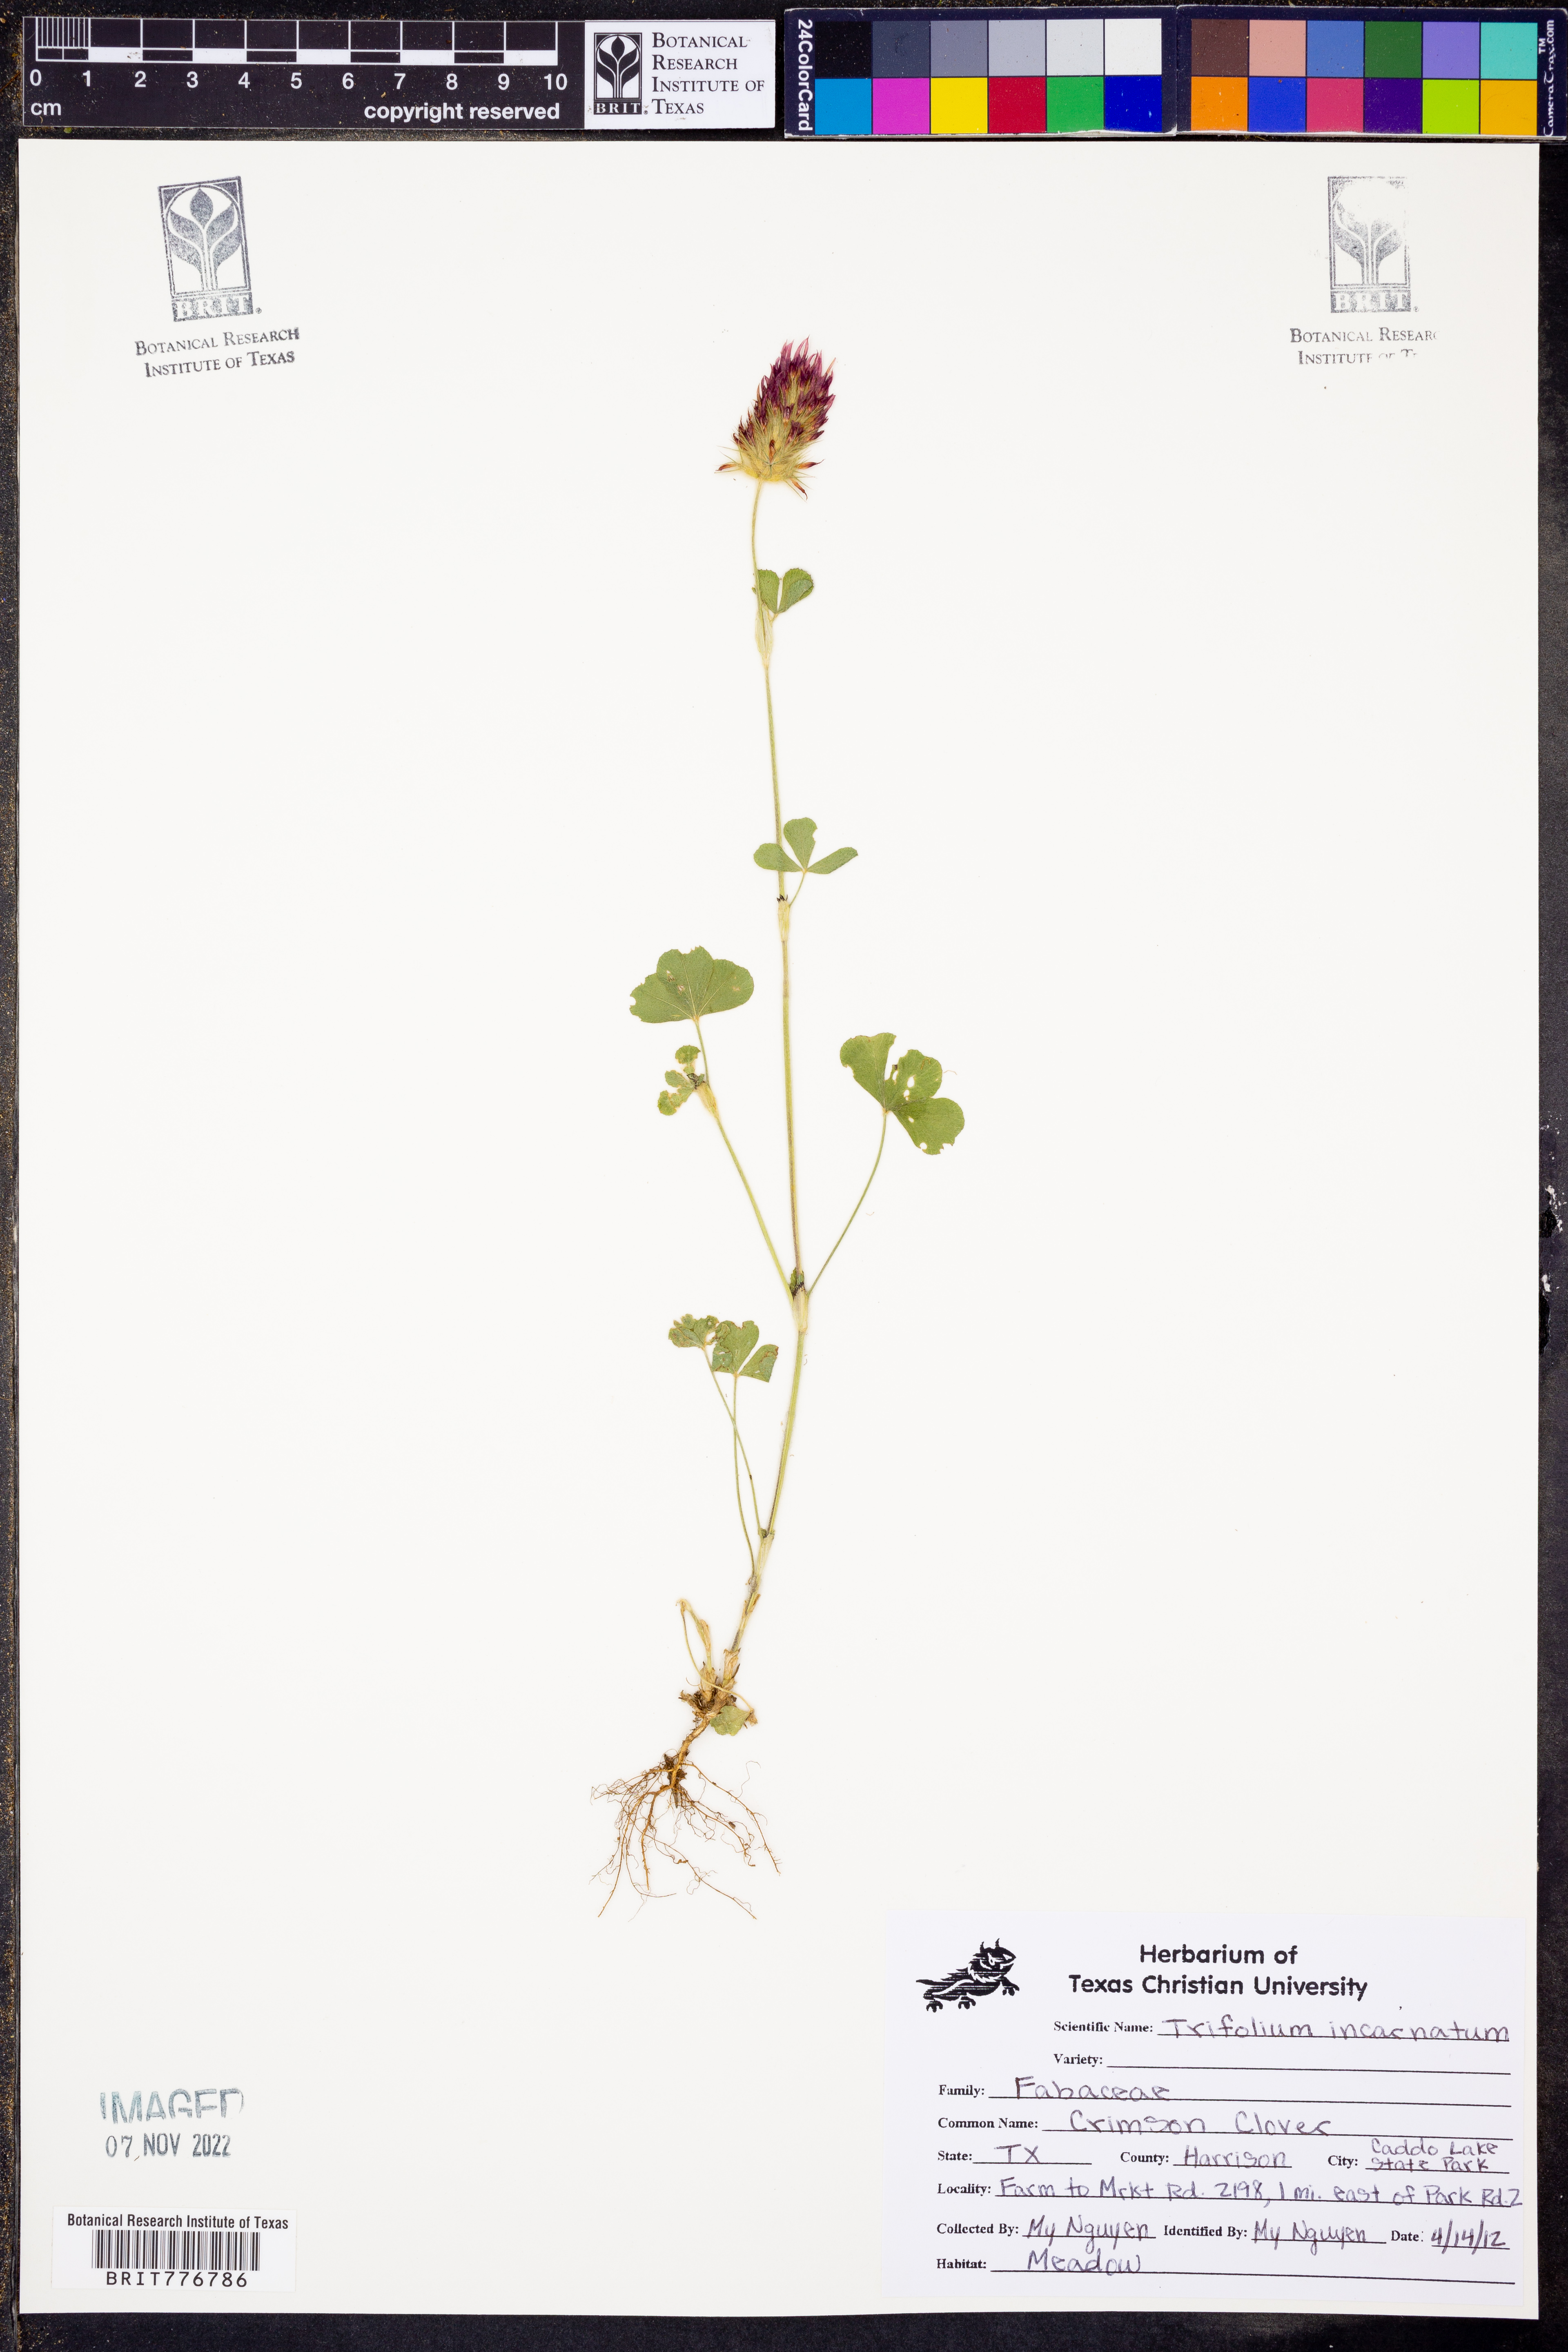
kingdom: Plantae
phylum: Tracheophyta
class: Magnoliopsida
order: Fabales
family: Fabaceae
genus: Trifolium
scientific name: Trifolium incarnatum
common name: Crimson clover
